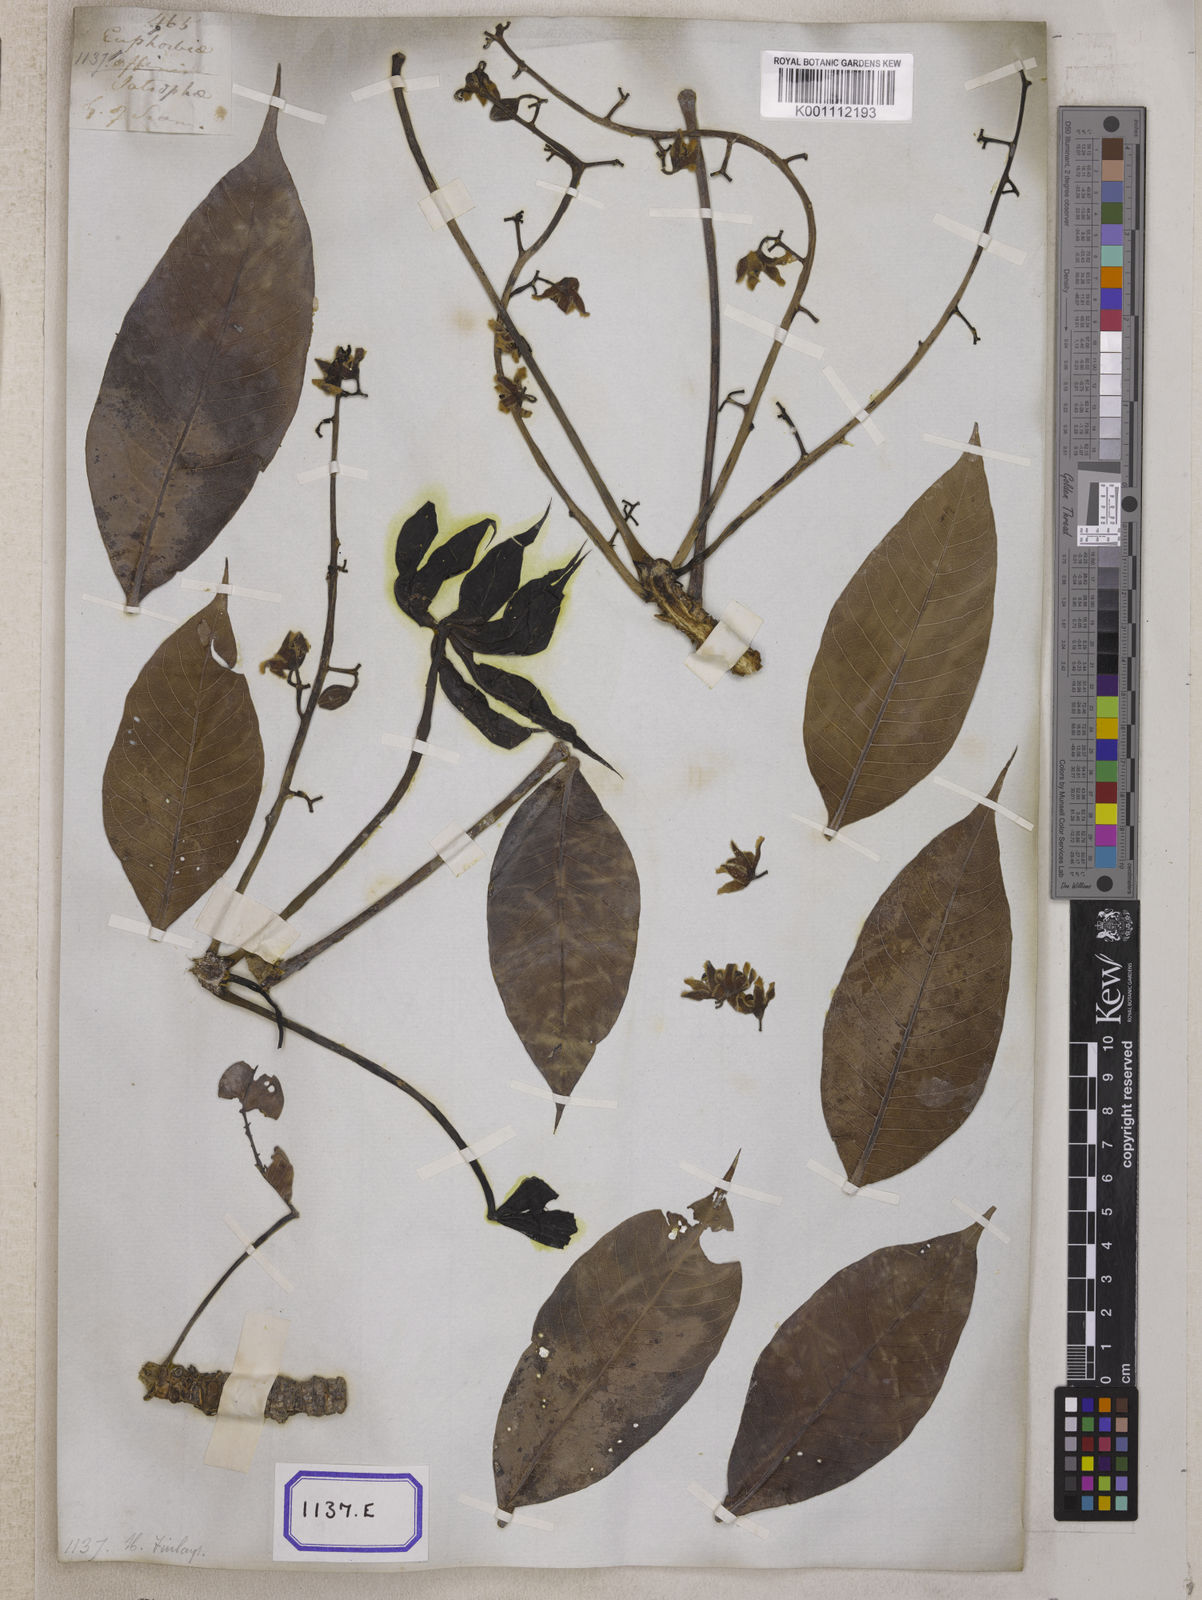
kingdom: Plantae
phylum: Tracheophyta
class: Magnoliopsida
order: Malvales
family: Malvaceae
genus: Sterculia
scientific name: Sterculia foetida
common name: Hazel sterculia
